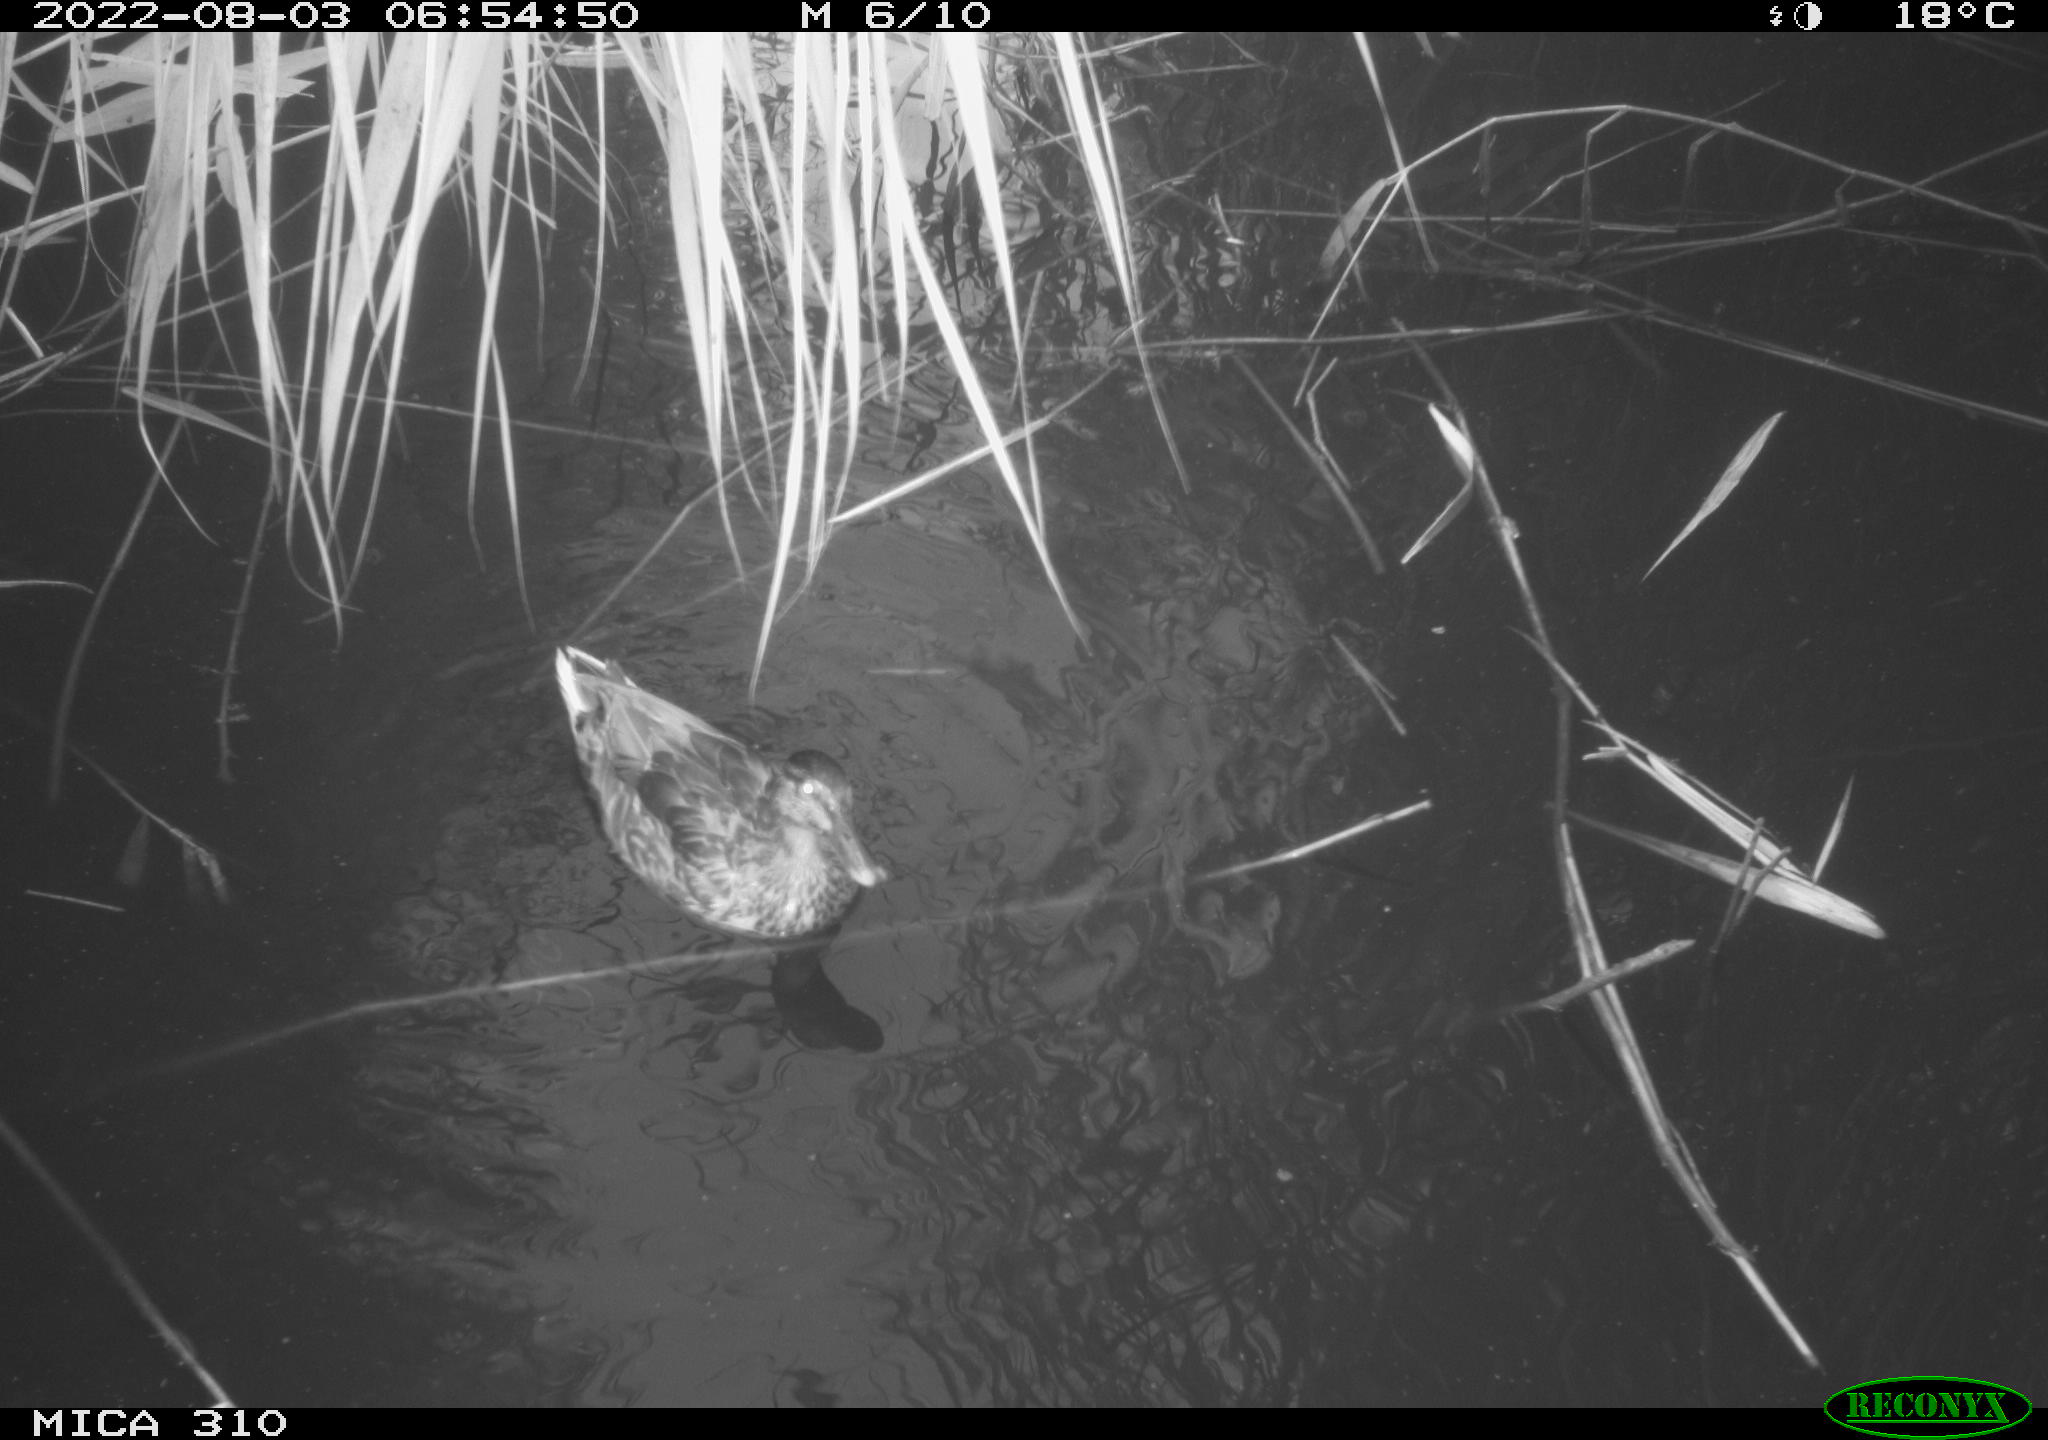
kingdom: Animalia
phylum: Chordata
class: Aves
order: Anseriformes
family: Anatidae
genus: Mareca
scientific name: Mareca strepera
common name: Gadwall
